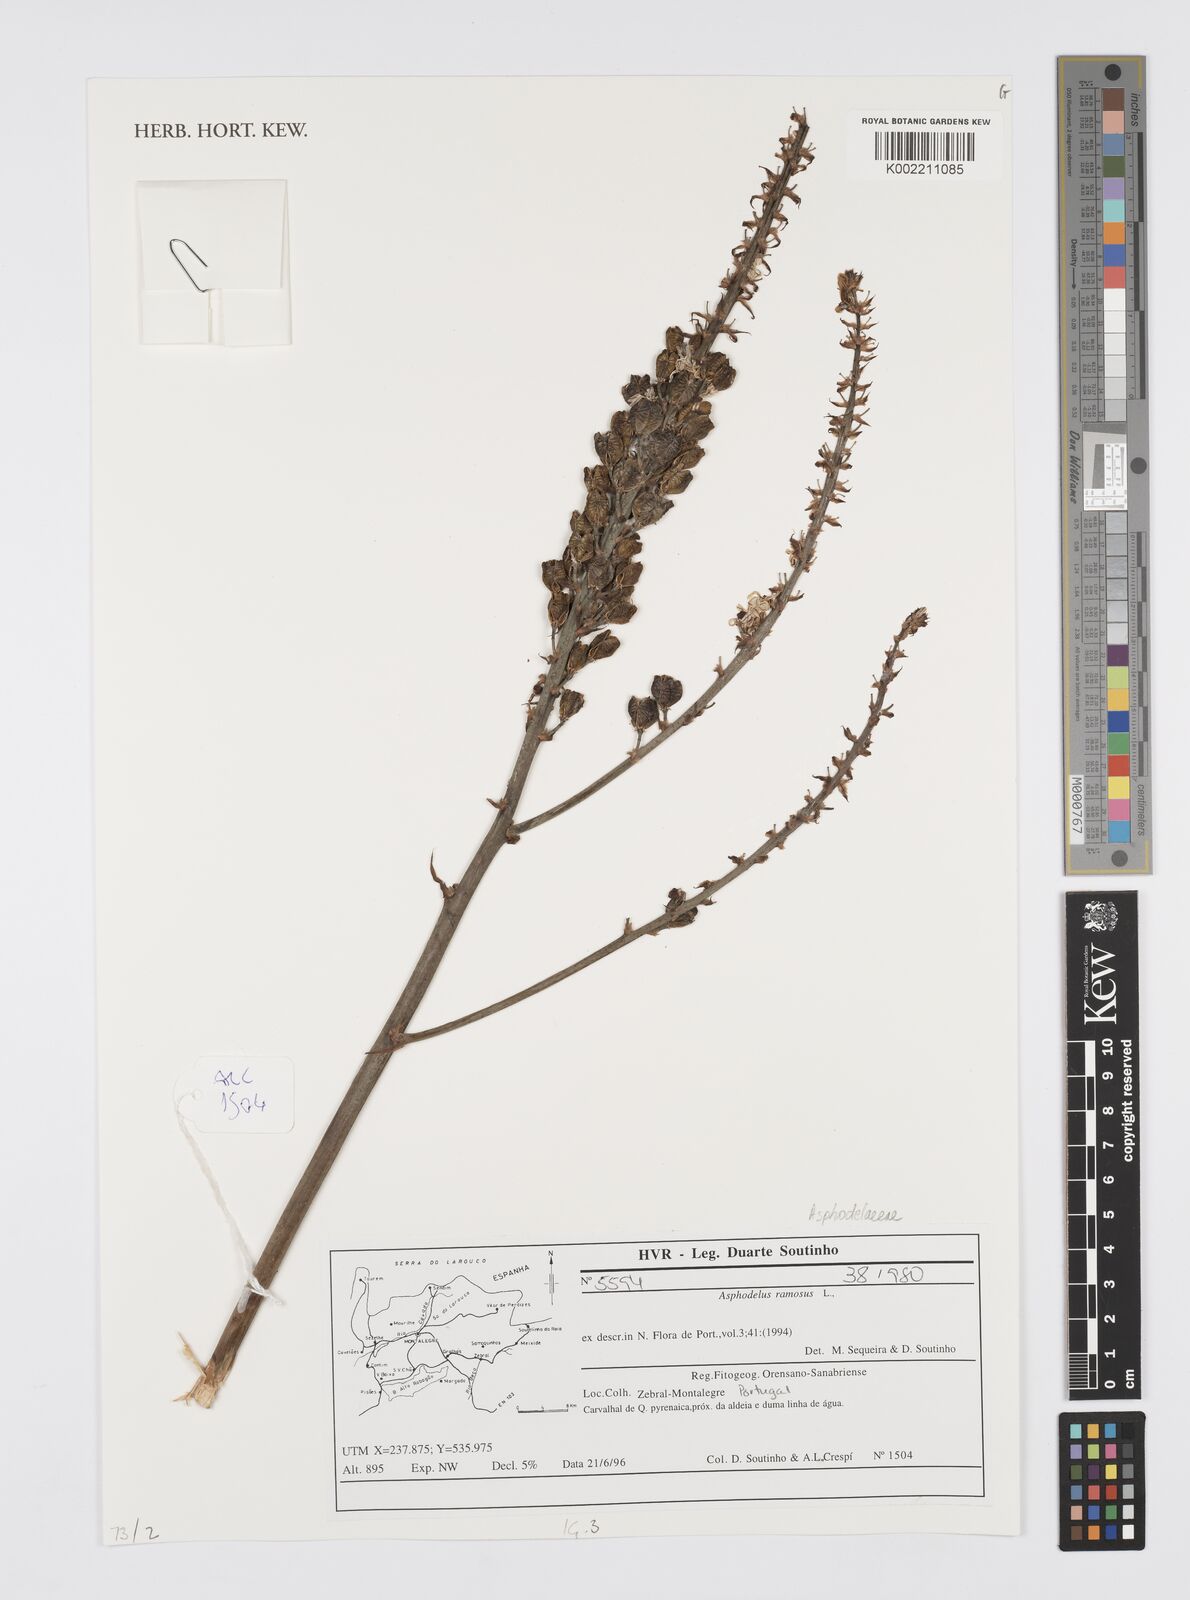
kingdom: Plantae
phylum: Tracheophyta
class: Liliopsida
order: Asparagales
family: Asphodelaceae
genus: Asphodelus
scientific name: Asphodelus ramosus
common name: Silverrod
